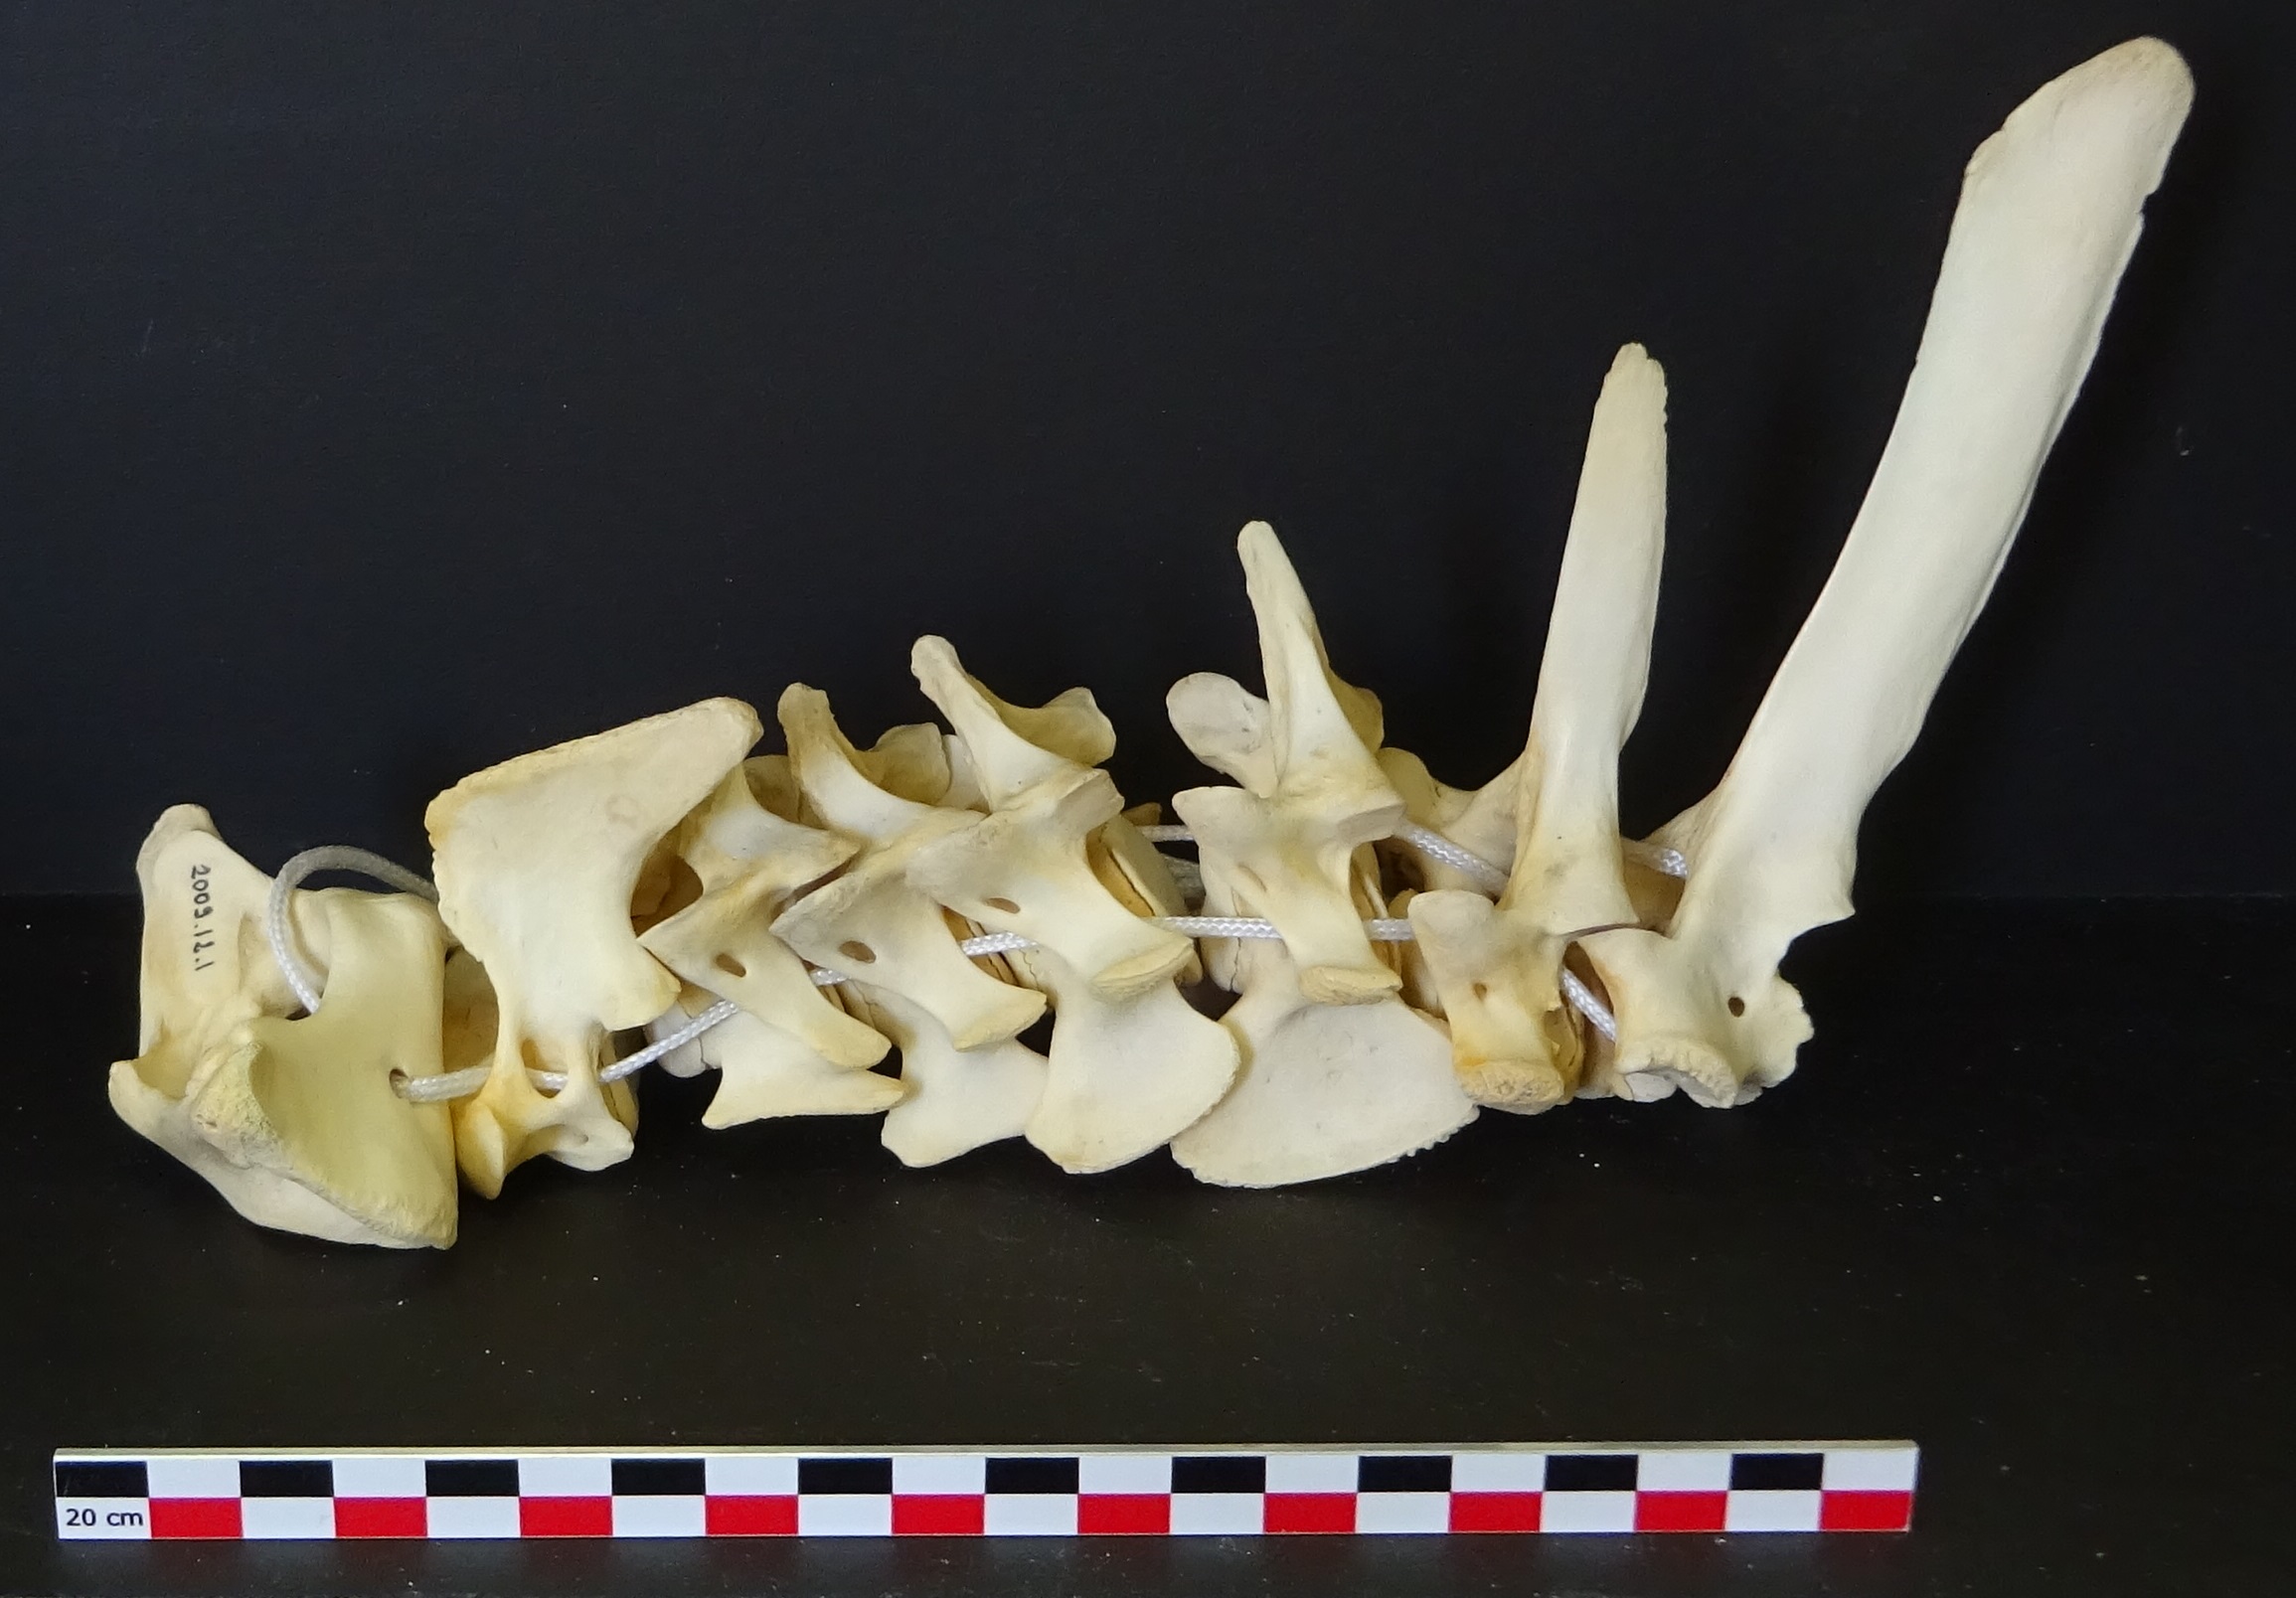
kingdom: Animalia
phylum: Chordata
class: Mammalia
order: Artiodactyla
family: Suidae
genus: Sus
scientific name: Sus scrofa
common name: Wild boar
